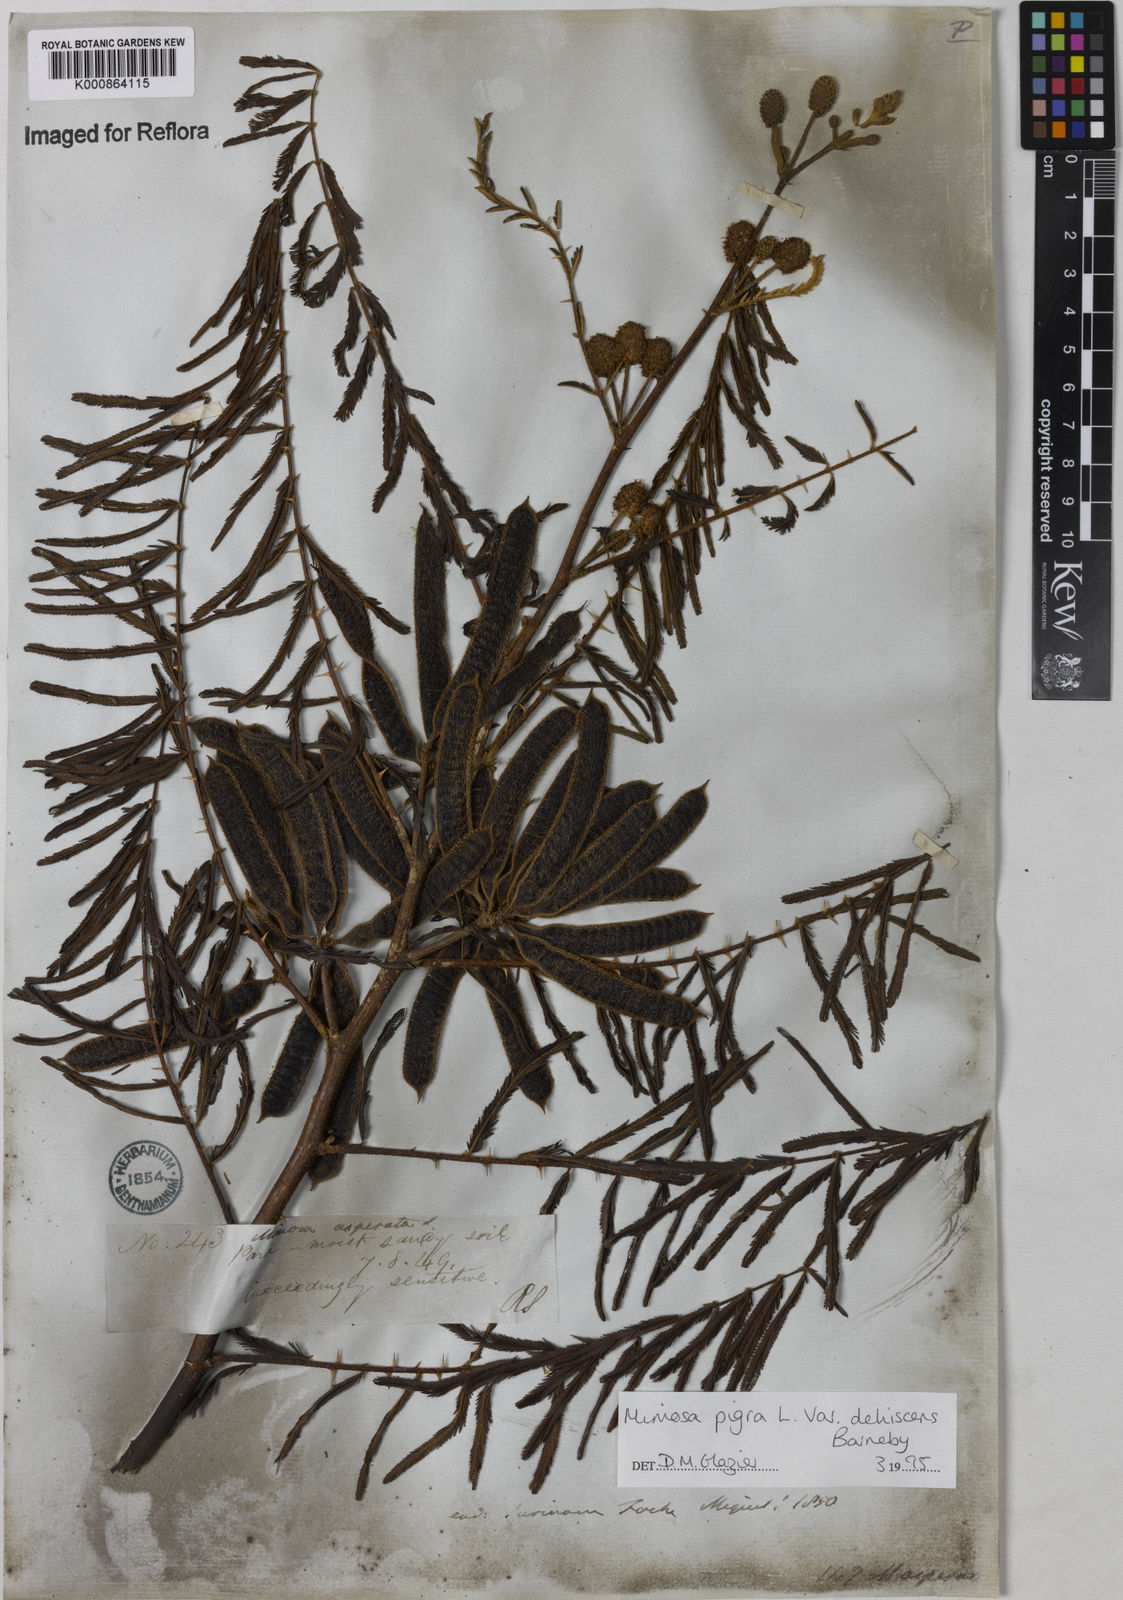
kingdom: Plantae
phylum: Tracheophyta
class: Magnoliopsida
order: Fabales
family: Fabaceae
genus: Mimosa
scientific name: Mimosa pigra
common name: Black mimosa
